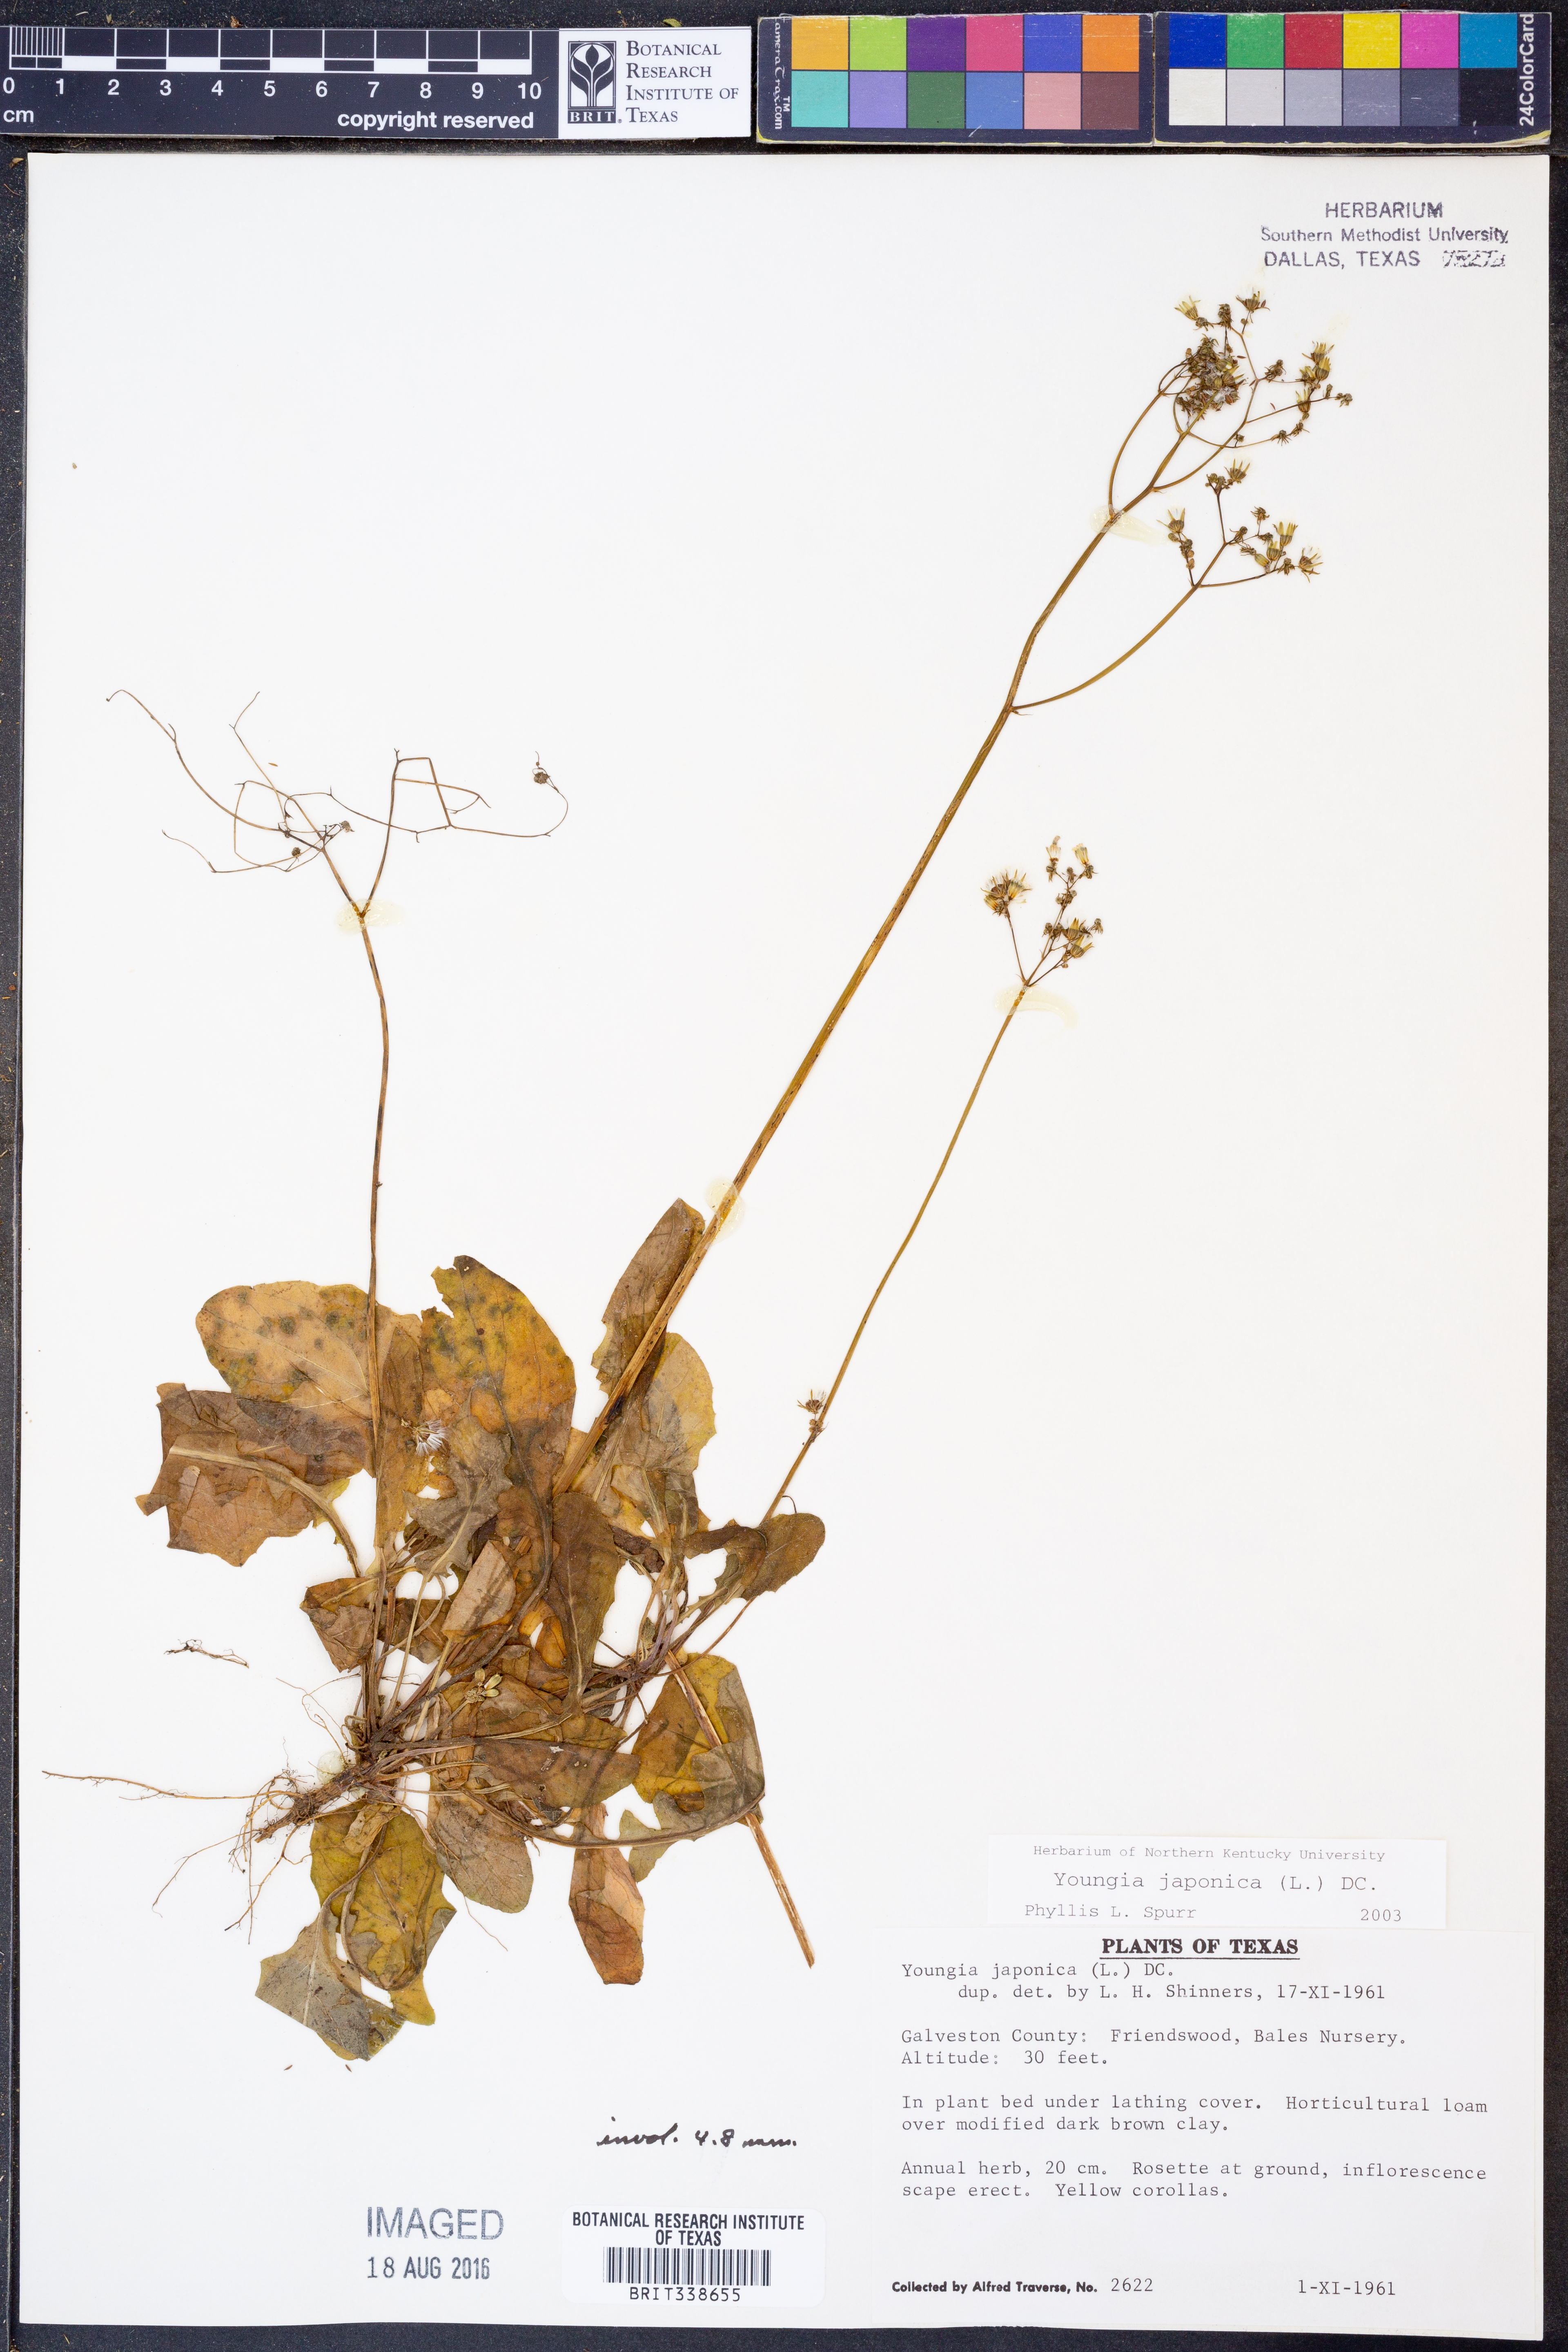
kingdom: Plantae
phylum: Tracheophyta
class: Magnoliopsida
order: Asterales
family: Asteraceae
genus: Youngia
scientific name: Youngia japonica
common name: Oriental false hawksbeard
